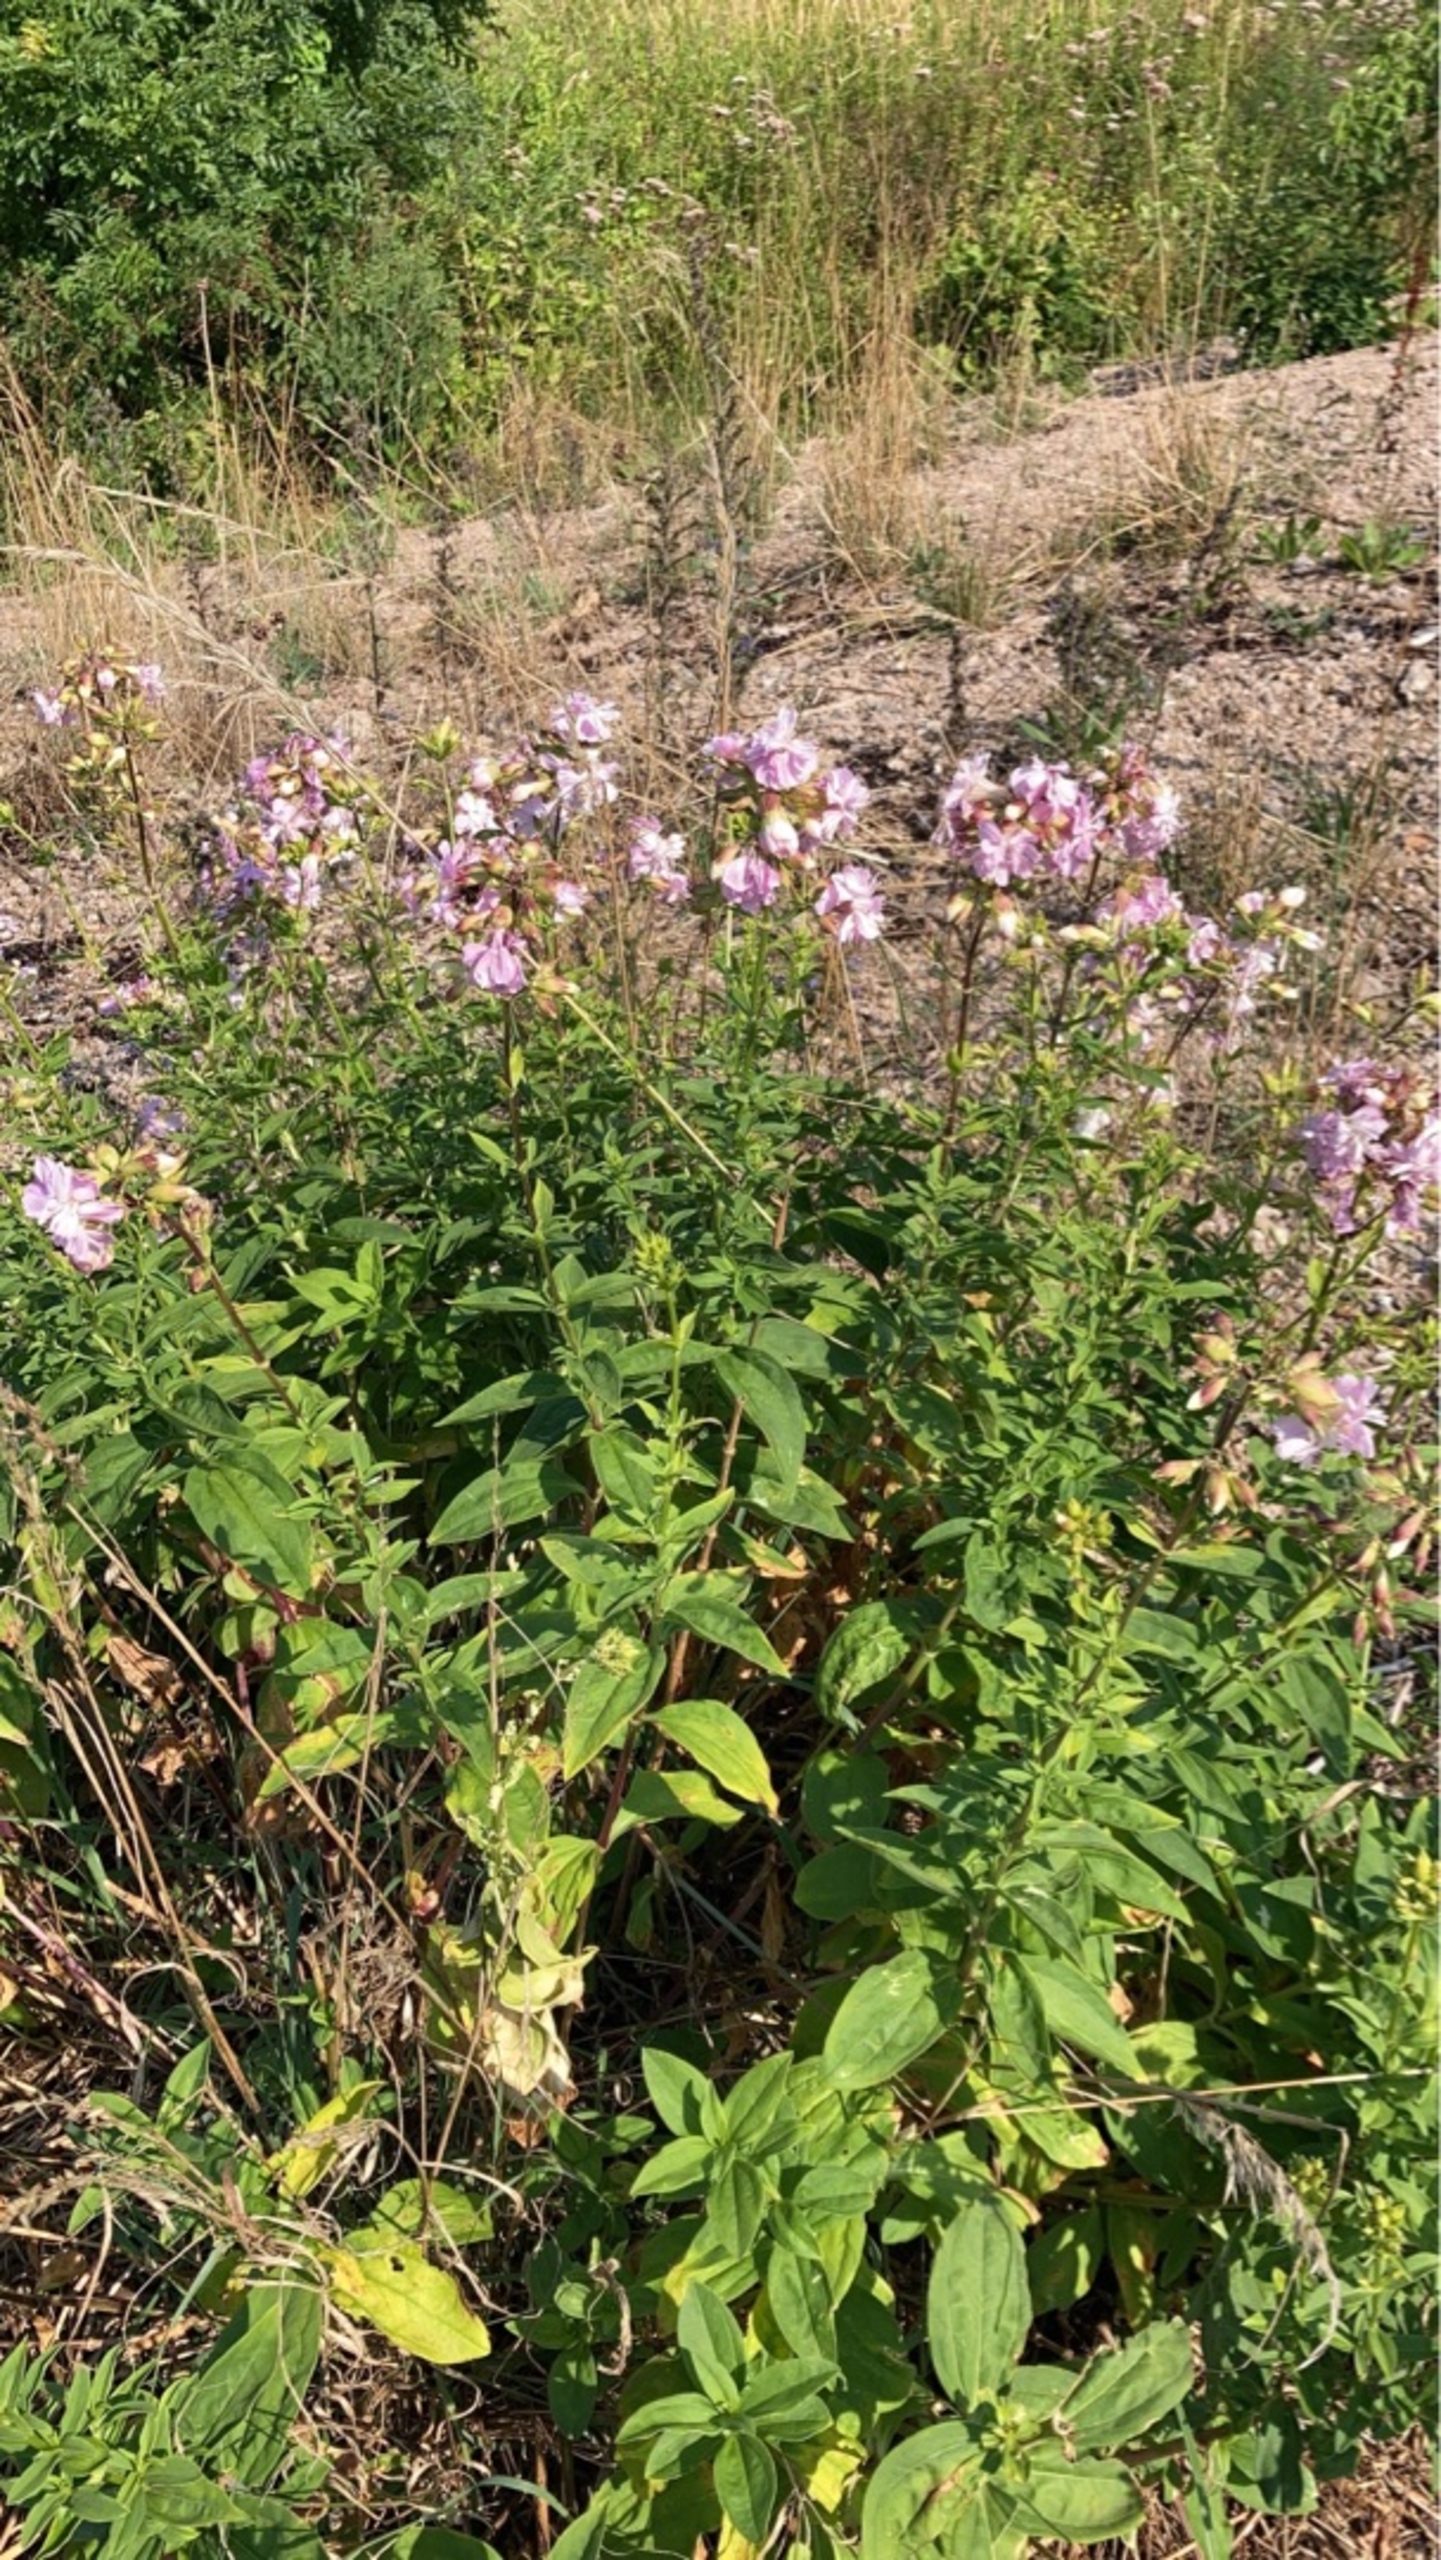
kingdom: Plantae
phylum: Tracheophyta
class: Magnoliopsida
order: Caryophyllales
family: Caryophyllaceae
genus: Saponaria
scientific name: Saponaria officinalis
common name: Sæbeurt
